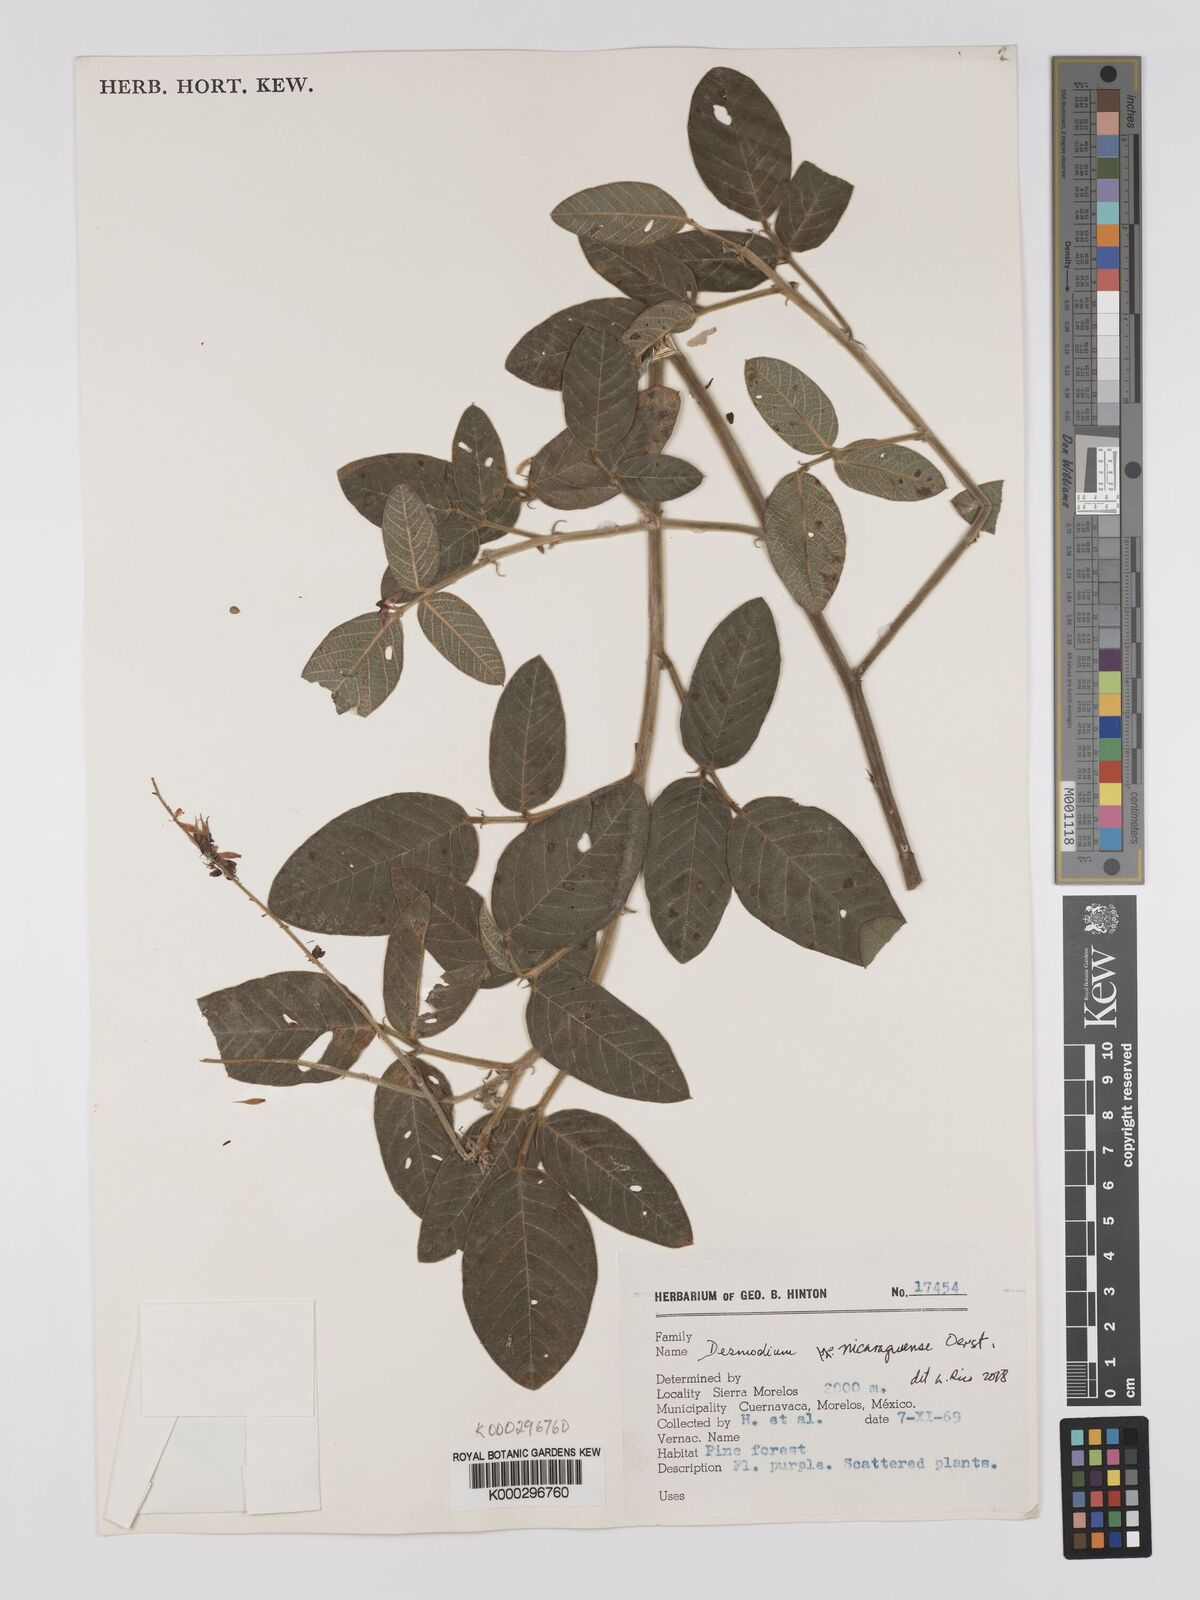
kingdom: Plantae
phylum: Tracheophyta
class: Magnoliopsida
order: Fabales
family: Fabaceae
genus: Desmodium
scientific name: Desmodium nicaraguense
